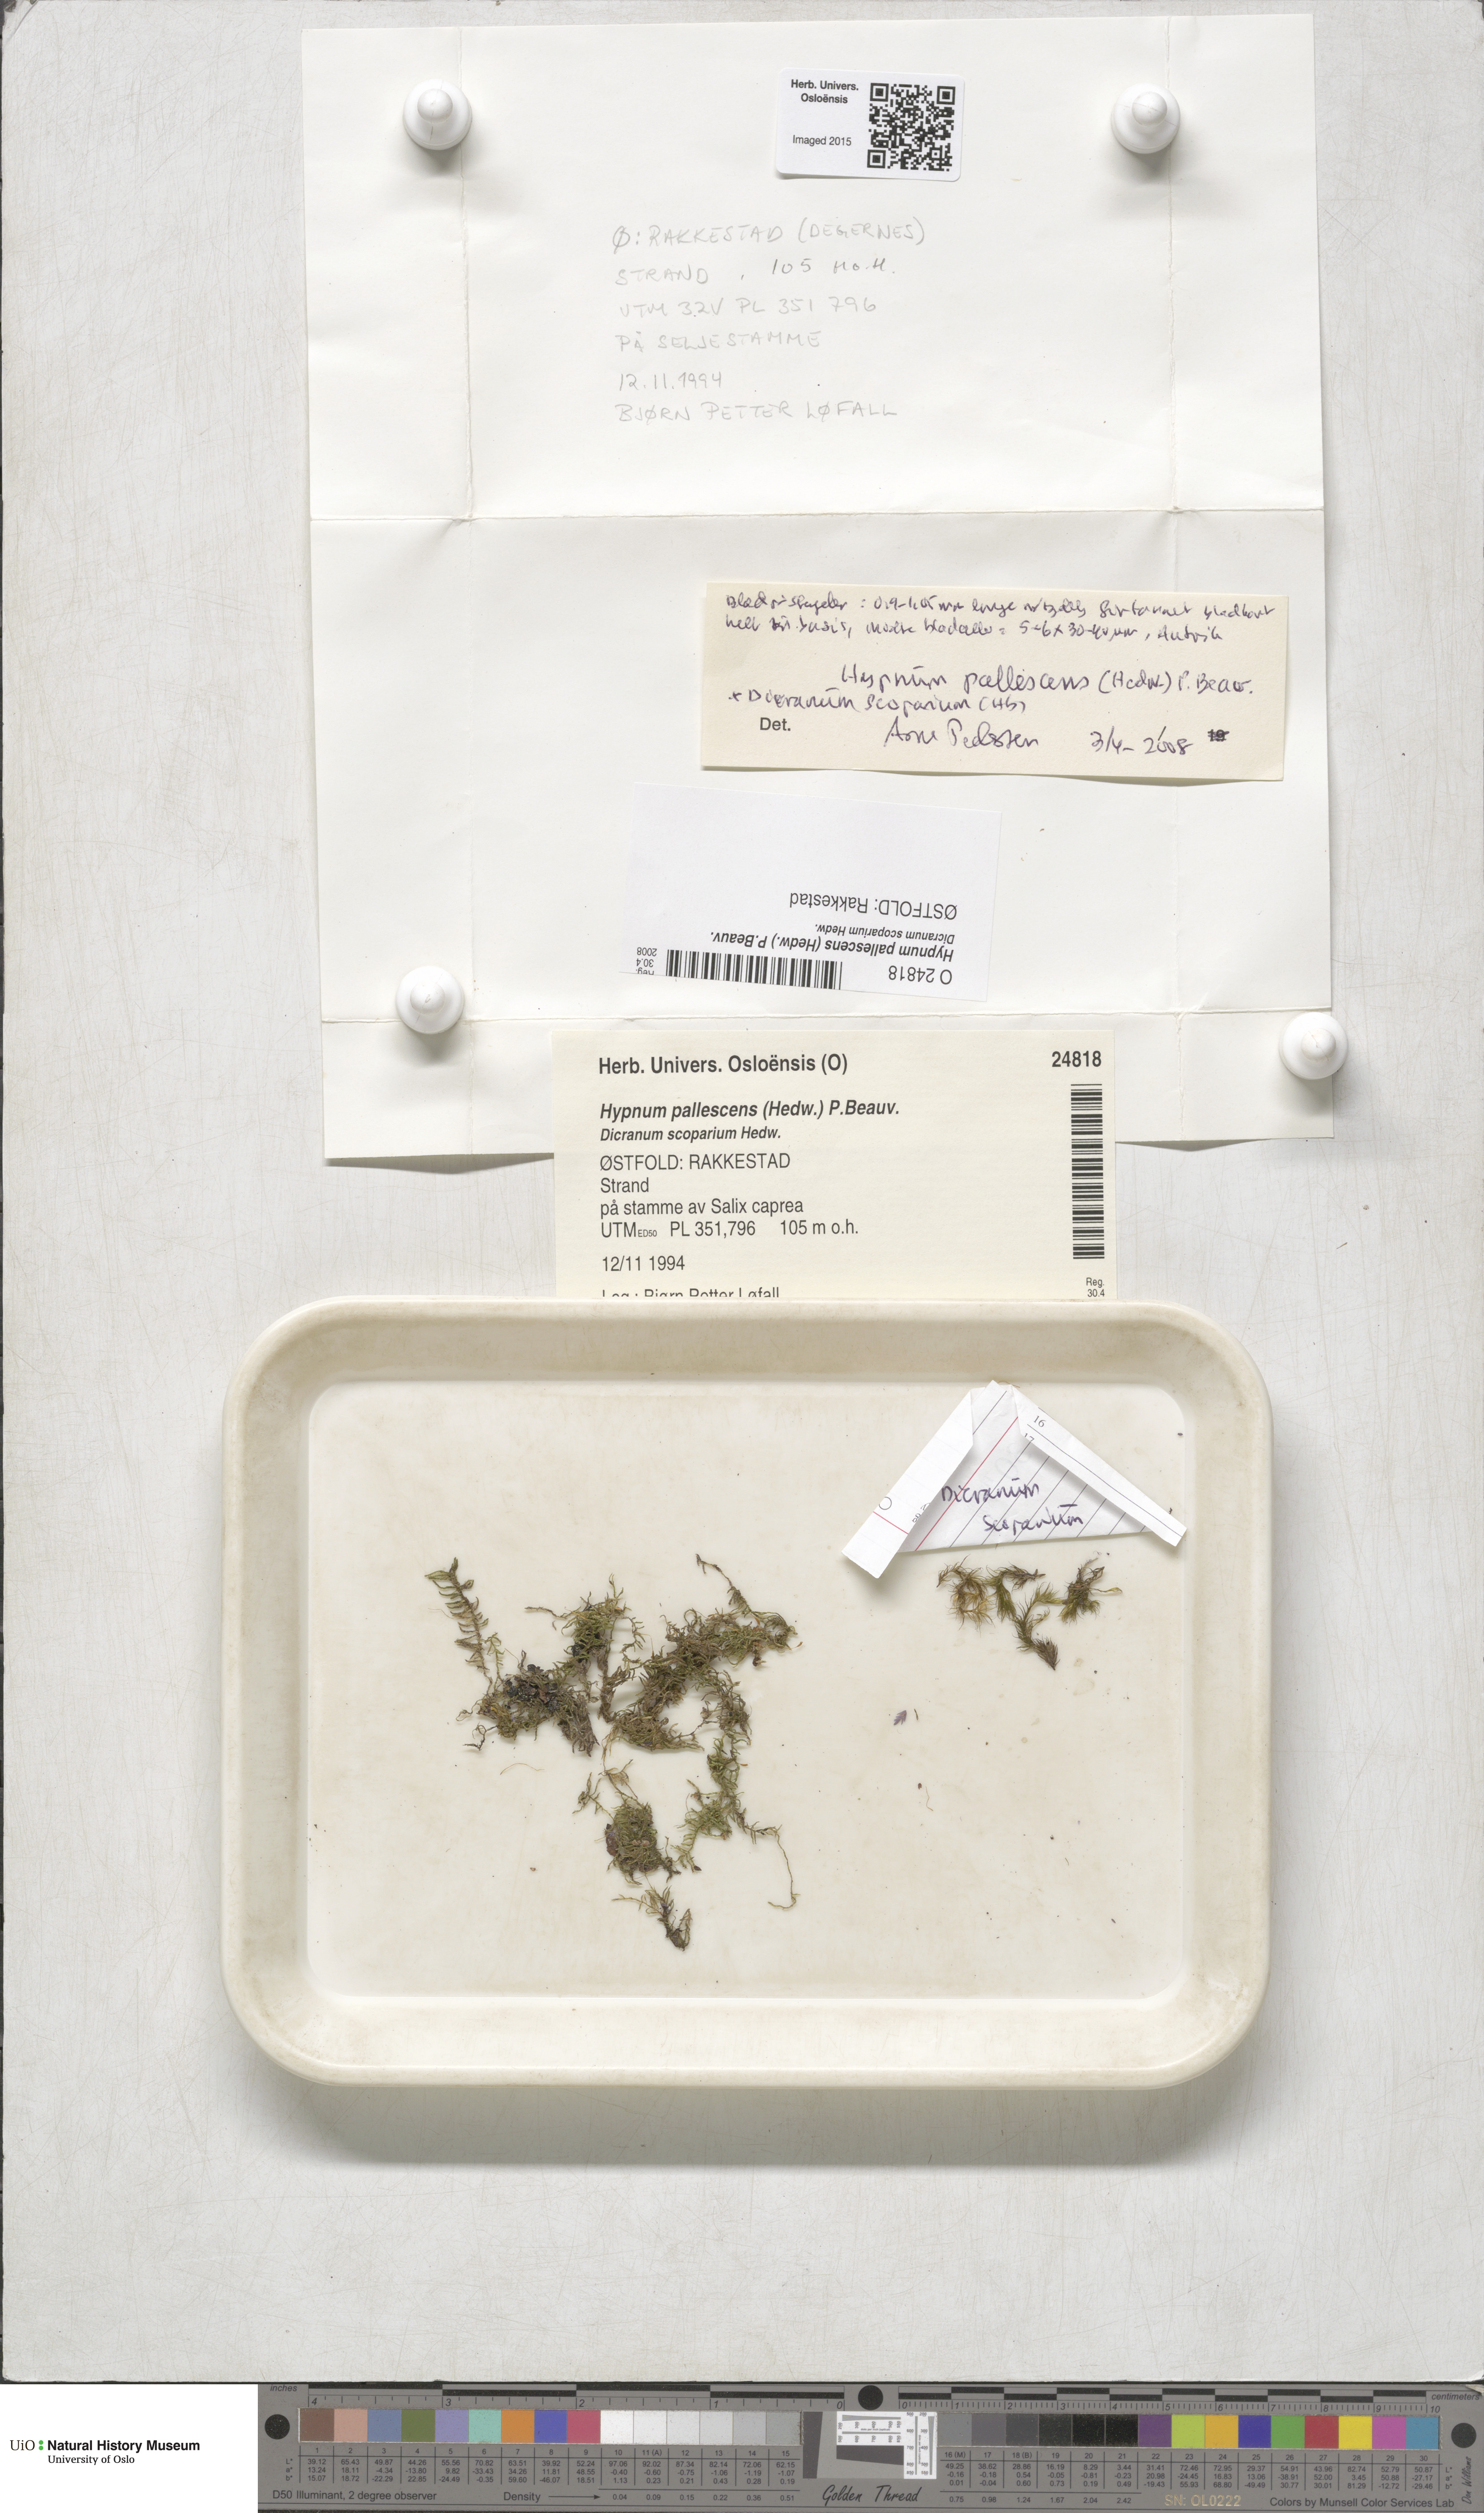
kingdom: Plantae
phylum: Bryophyta
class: Bryopsida
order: Hypnales
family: Jocheniaceae
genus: Jochenia
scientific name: Jochenia pallescens
